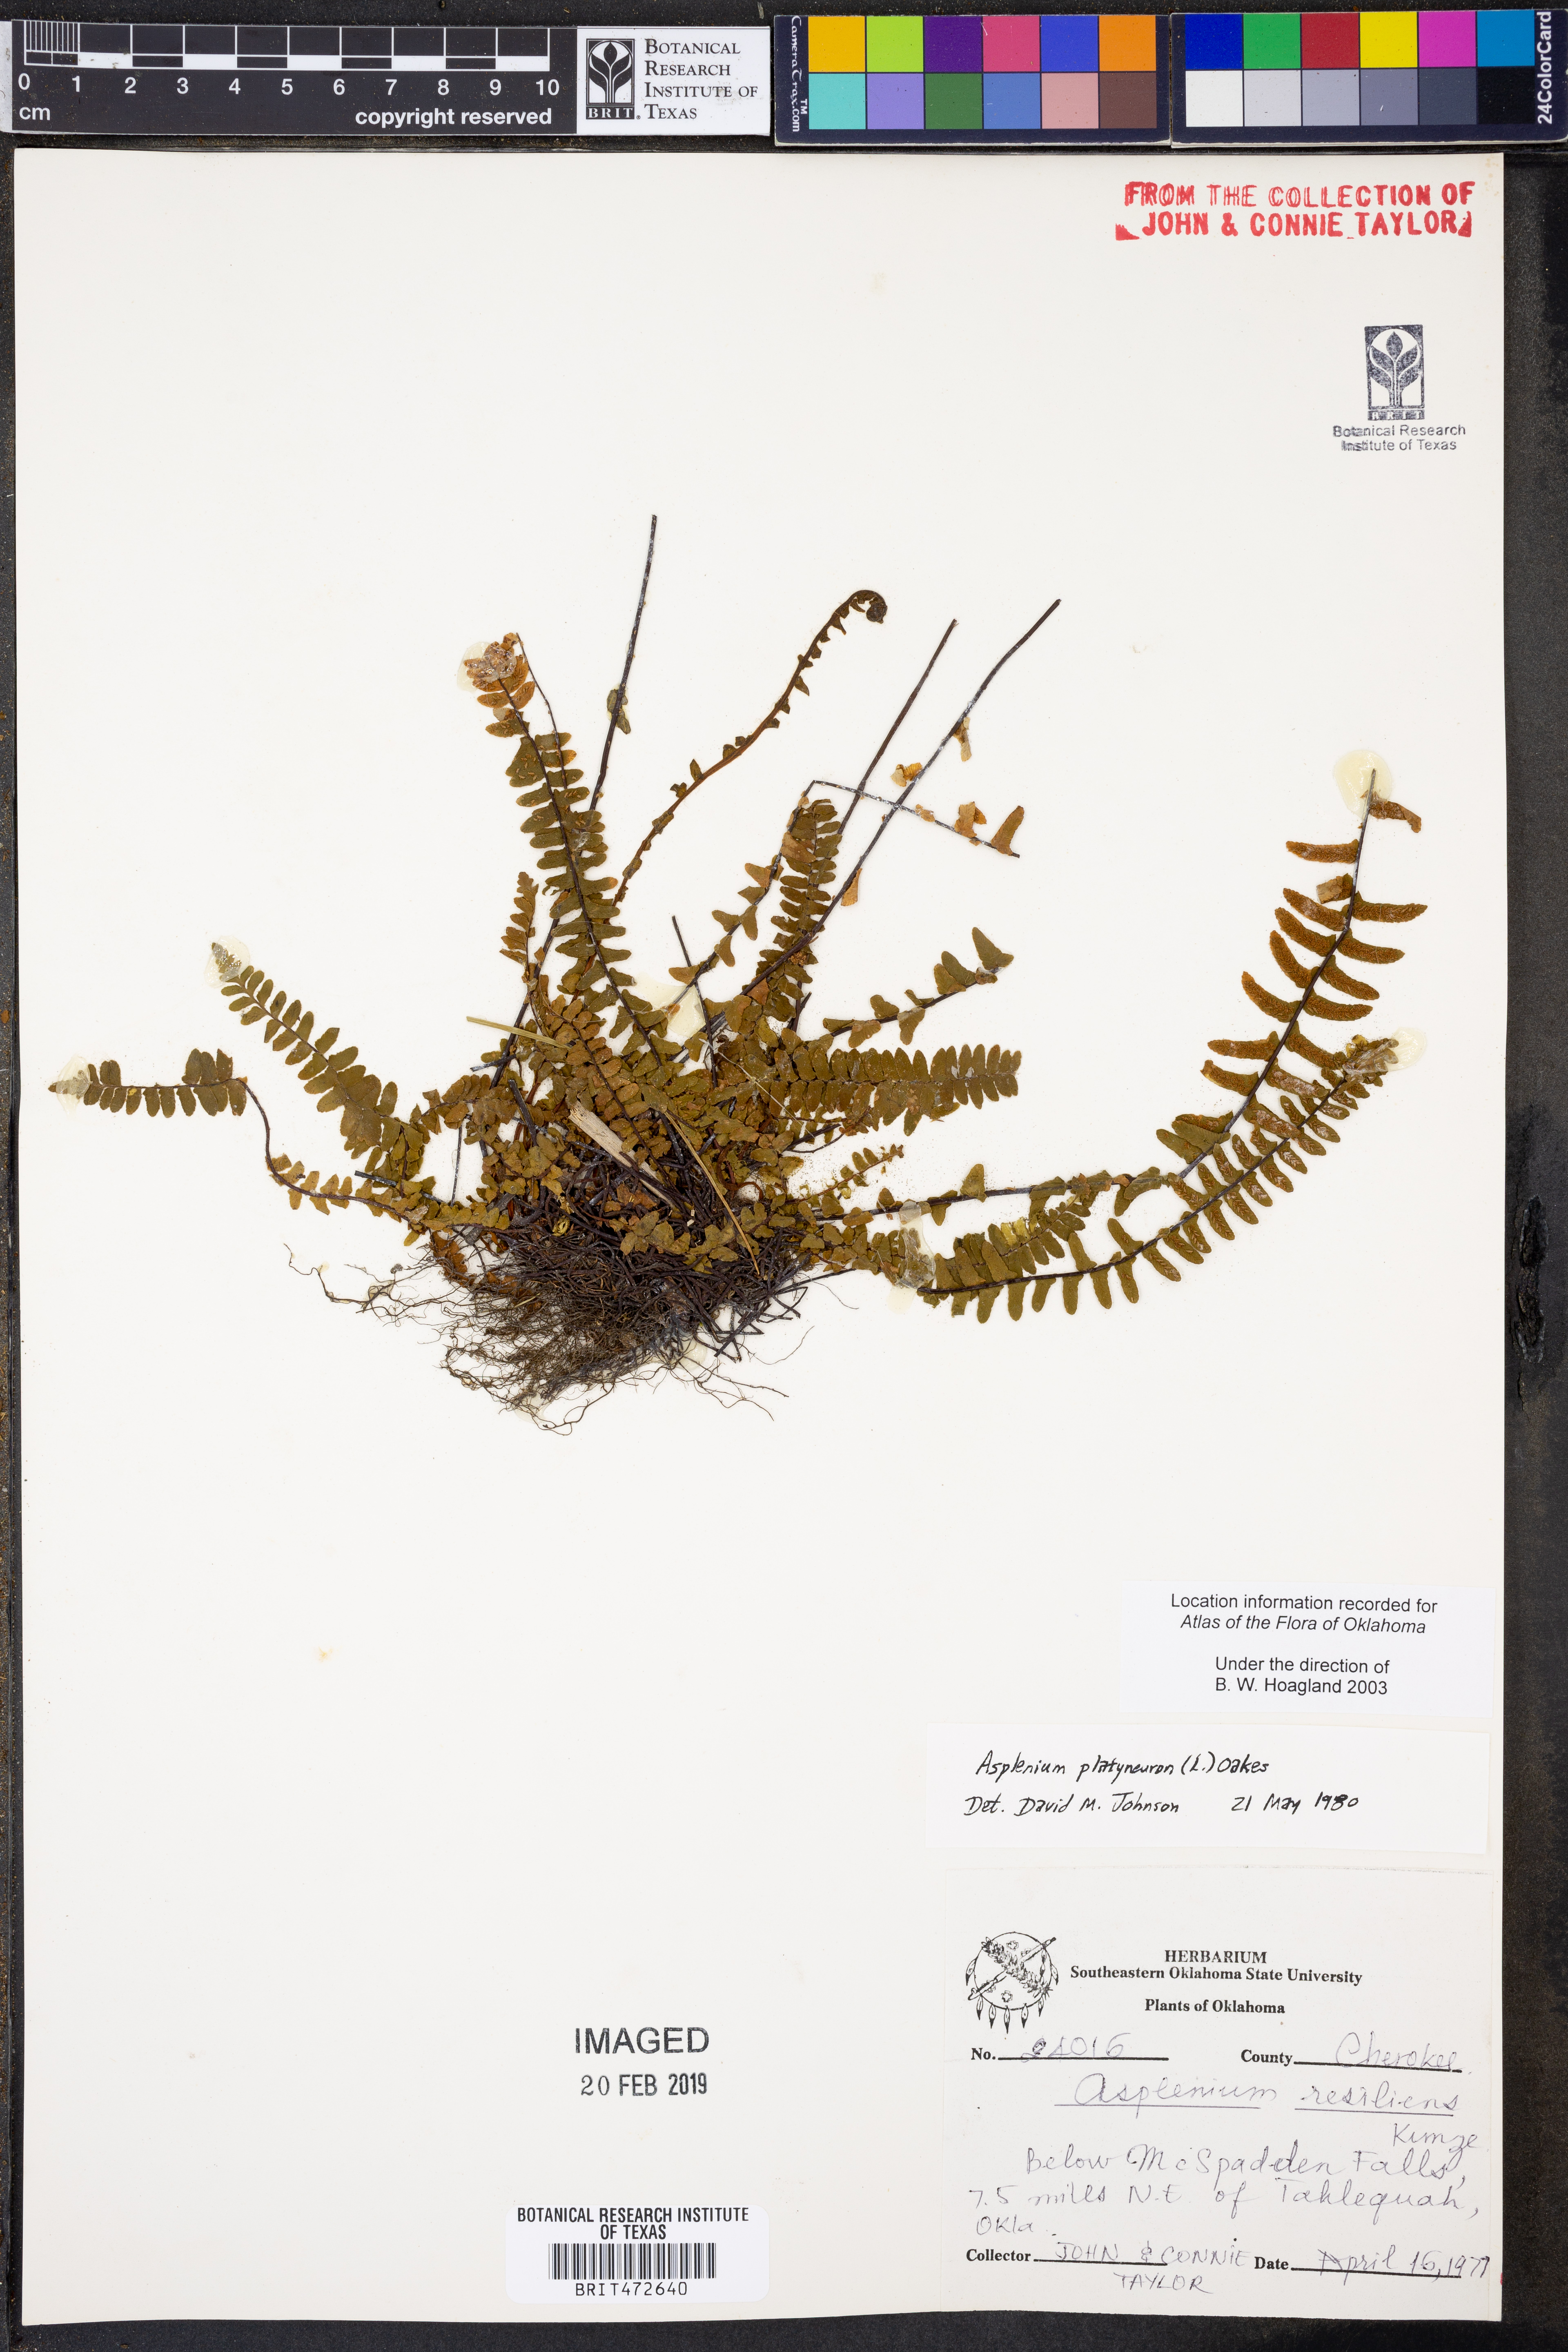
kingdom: Plantae
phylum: Tracheophyta
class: Polypodiopsida
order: Polypodiales
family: Aspleniaceae
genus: Asplenium
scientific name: Asplenium platyneuron
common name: Ebony spleenwort
